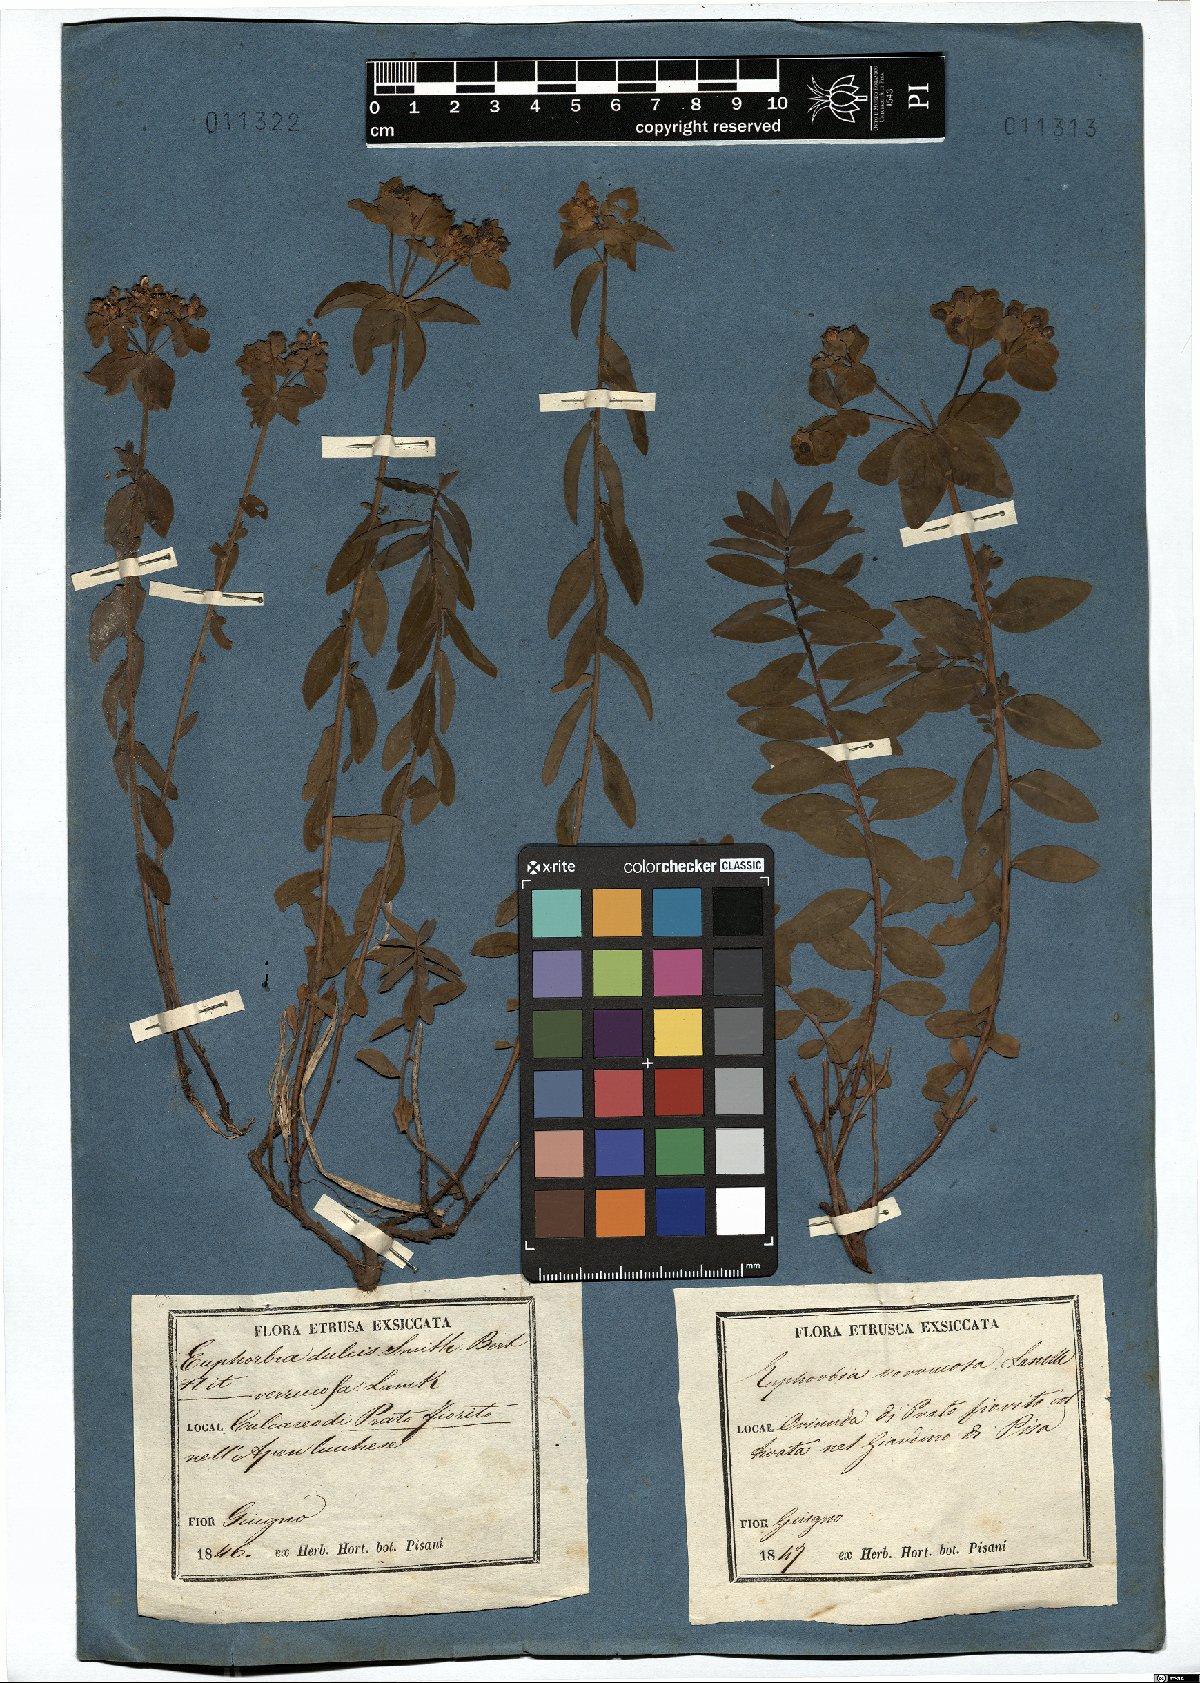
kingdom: Plantae
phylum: Tracheophyta
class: Magnoliopsida
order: Malpighiales
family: Euphorbiaceae
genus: Euphorbia
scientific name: Euphorbia verrucosa
